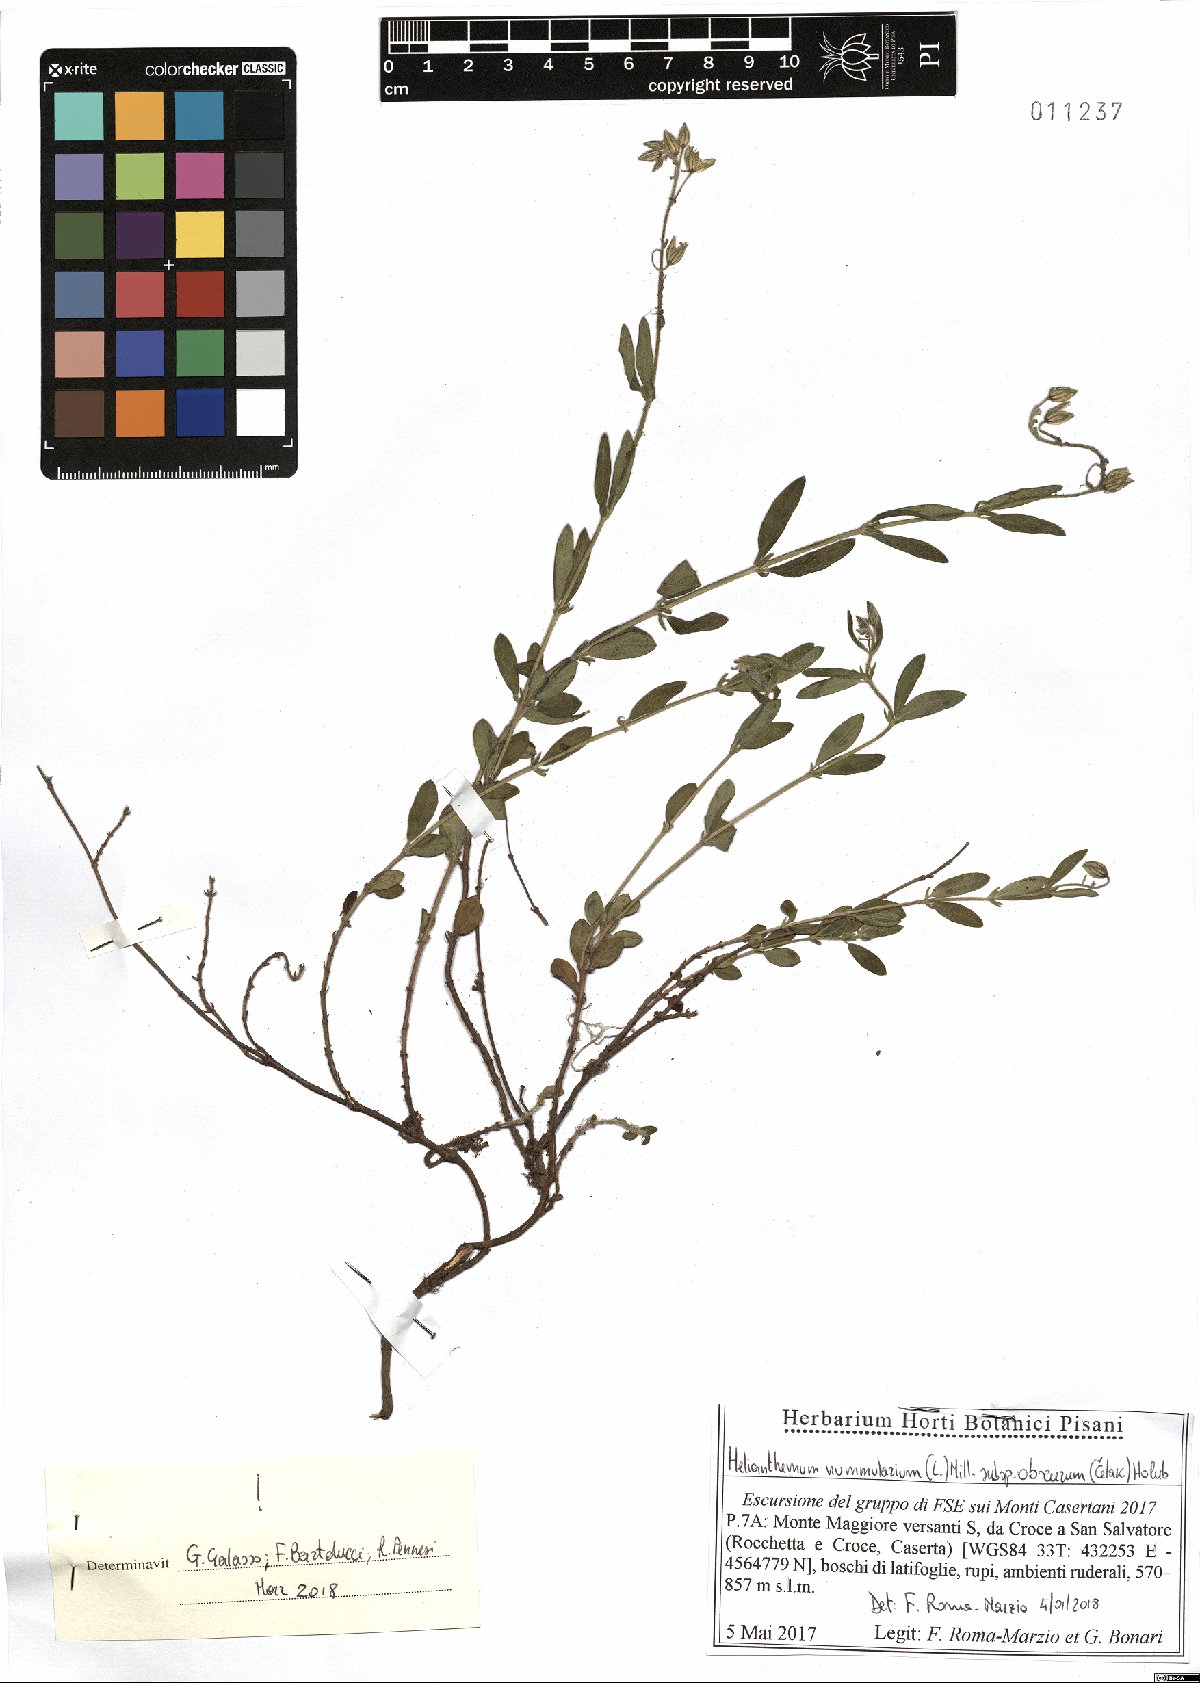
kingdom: Plantae
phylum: Tracheophyta
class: Magnoliopsida
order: Malvales
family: Cistaceae
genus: Helianthemum
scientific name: Helianthemum nummularium
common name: Common rock-rose
